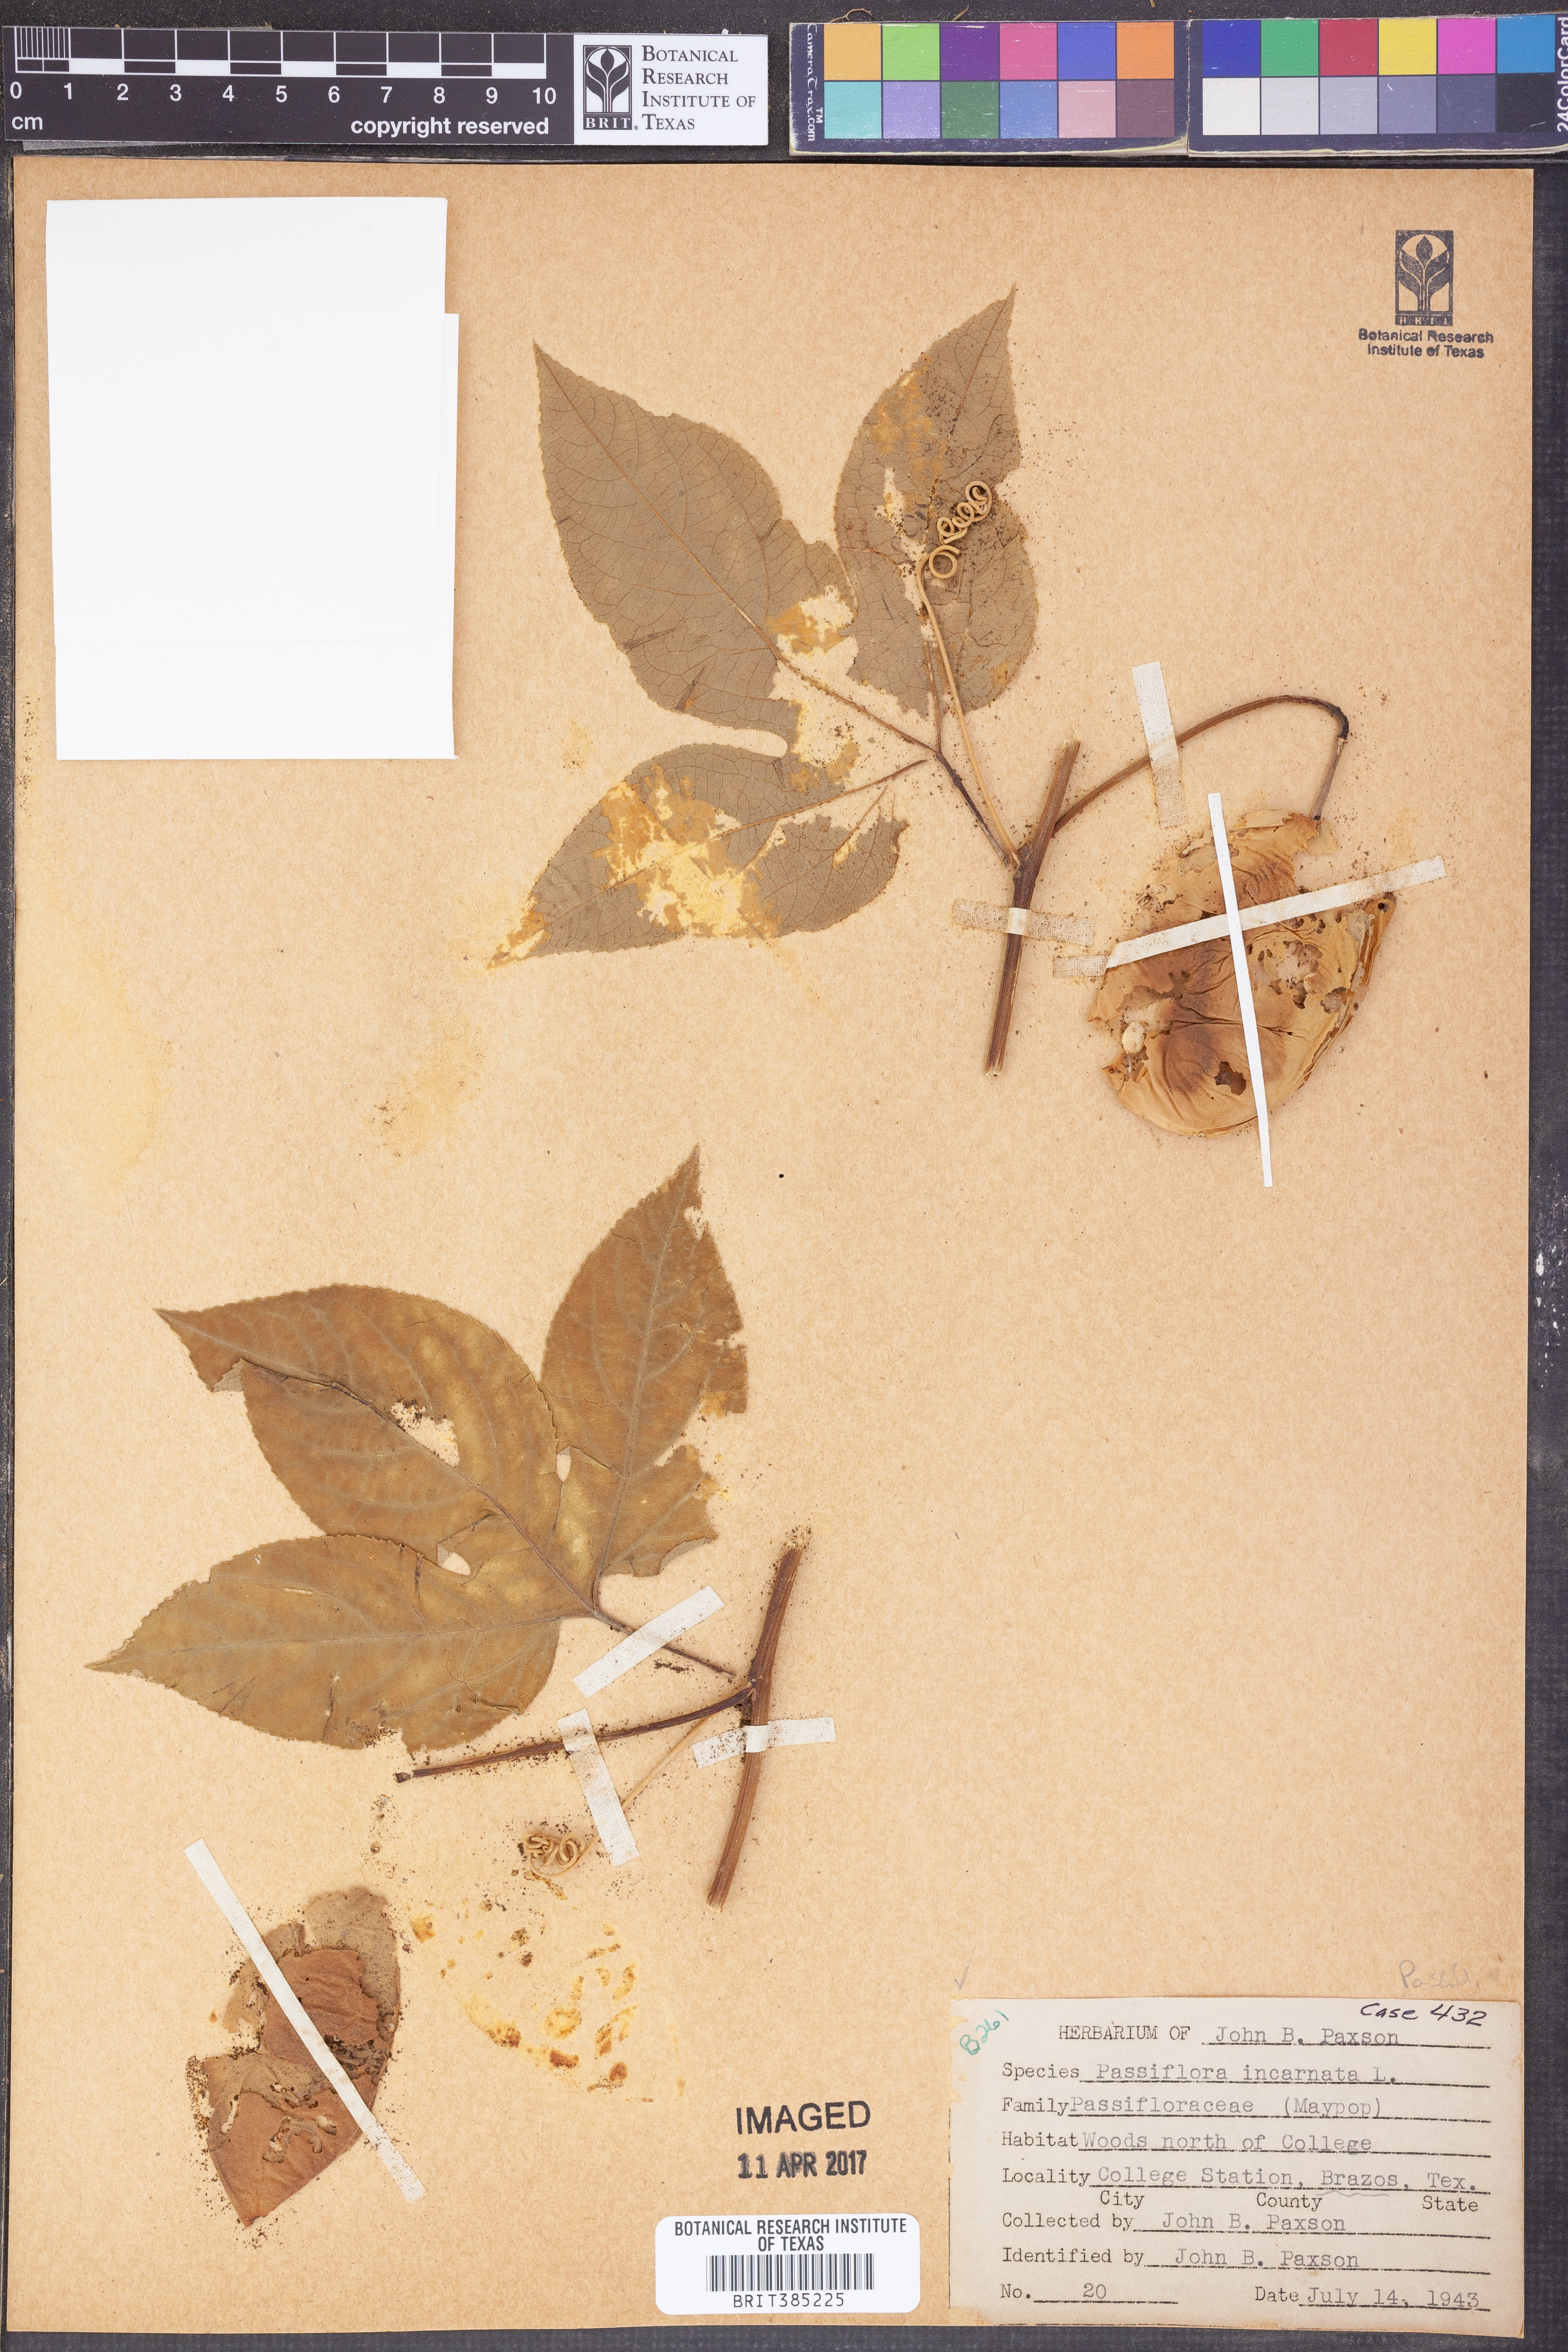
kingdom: Plantae
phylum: Tracheophyta
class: Magnoliopsida
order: Malpighiales
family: Passifloraceae
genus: Passiflora
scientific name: Passiflora incarnata
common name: Apricot-vine
